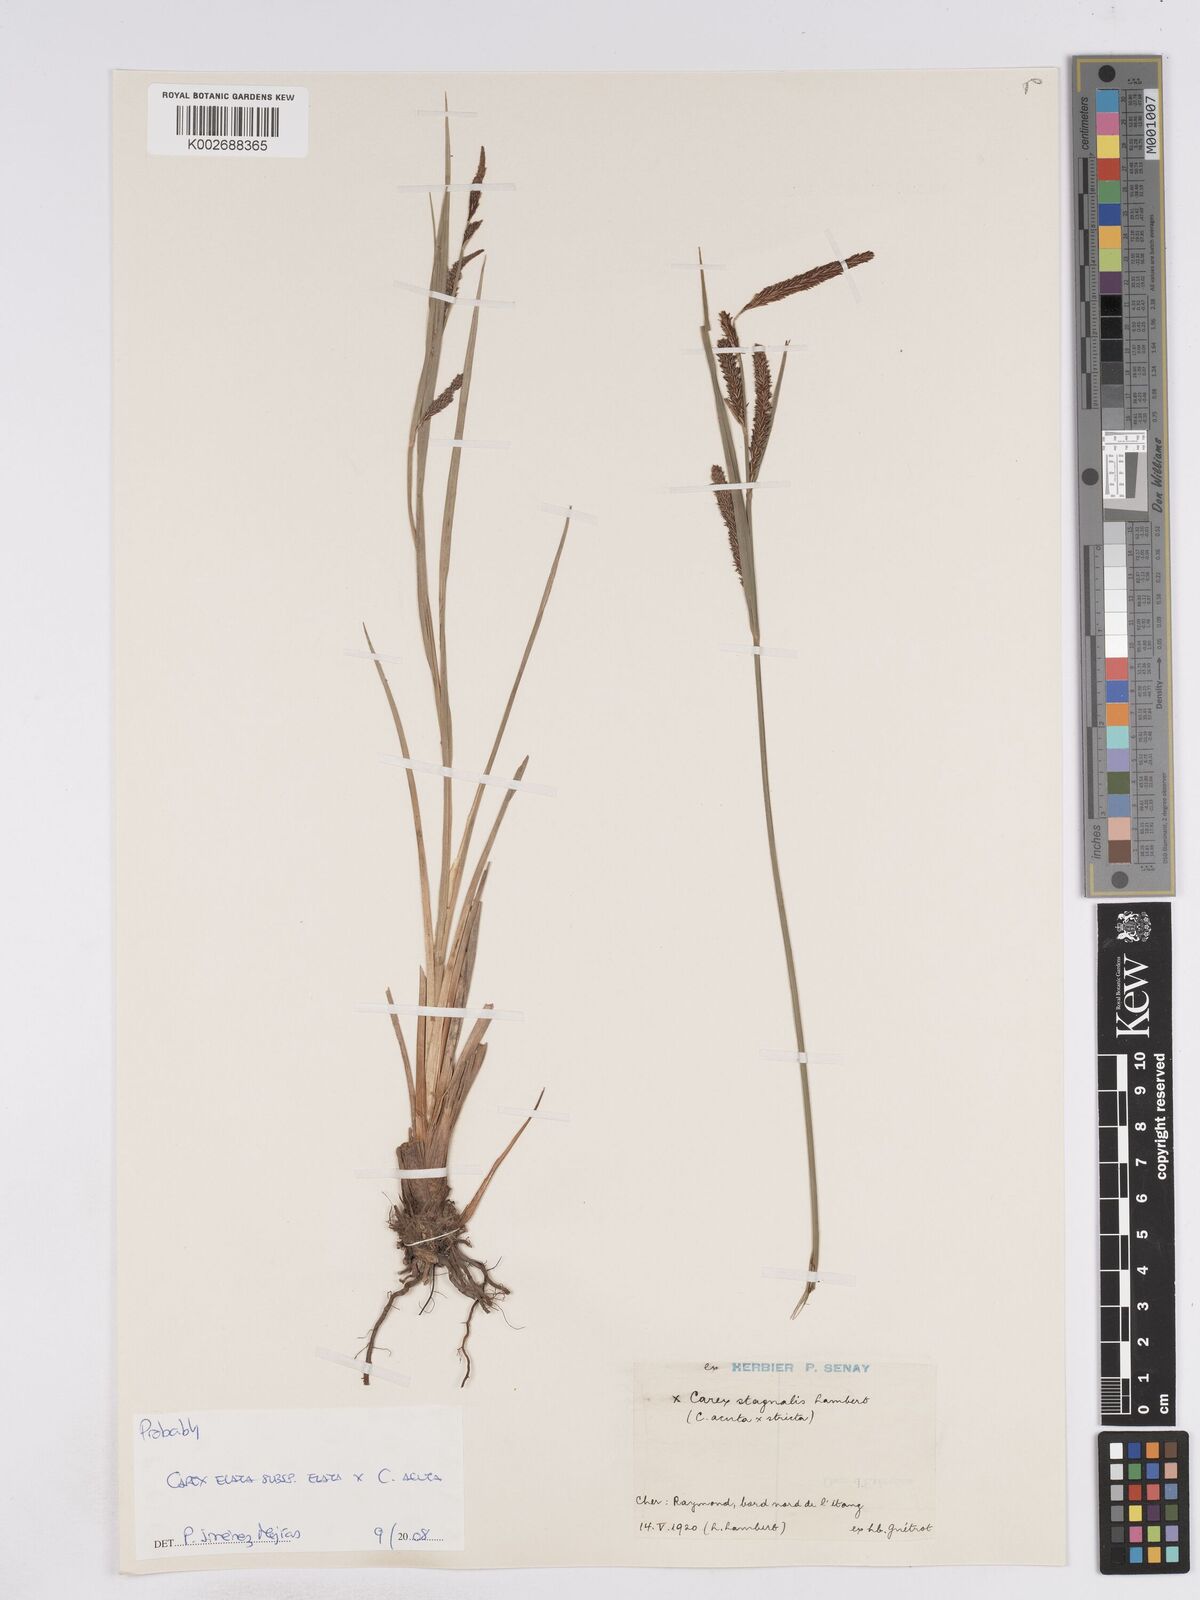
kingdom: Plantae
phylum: Tracheophyta
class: Liliopsida
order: Poales
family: Cyperaceae
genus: Carex
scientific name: Carex acuta
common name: Slender tufted-sedge
